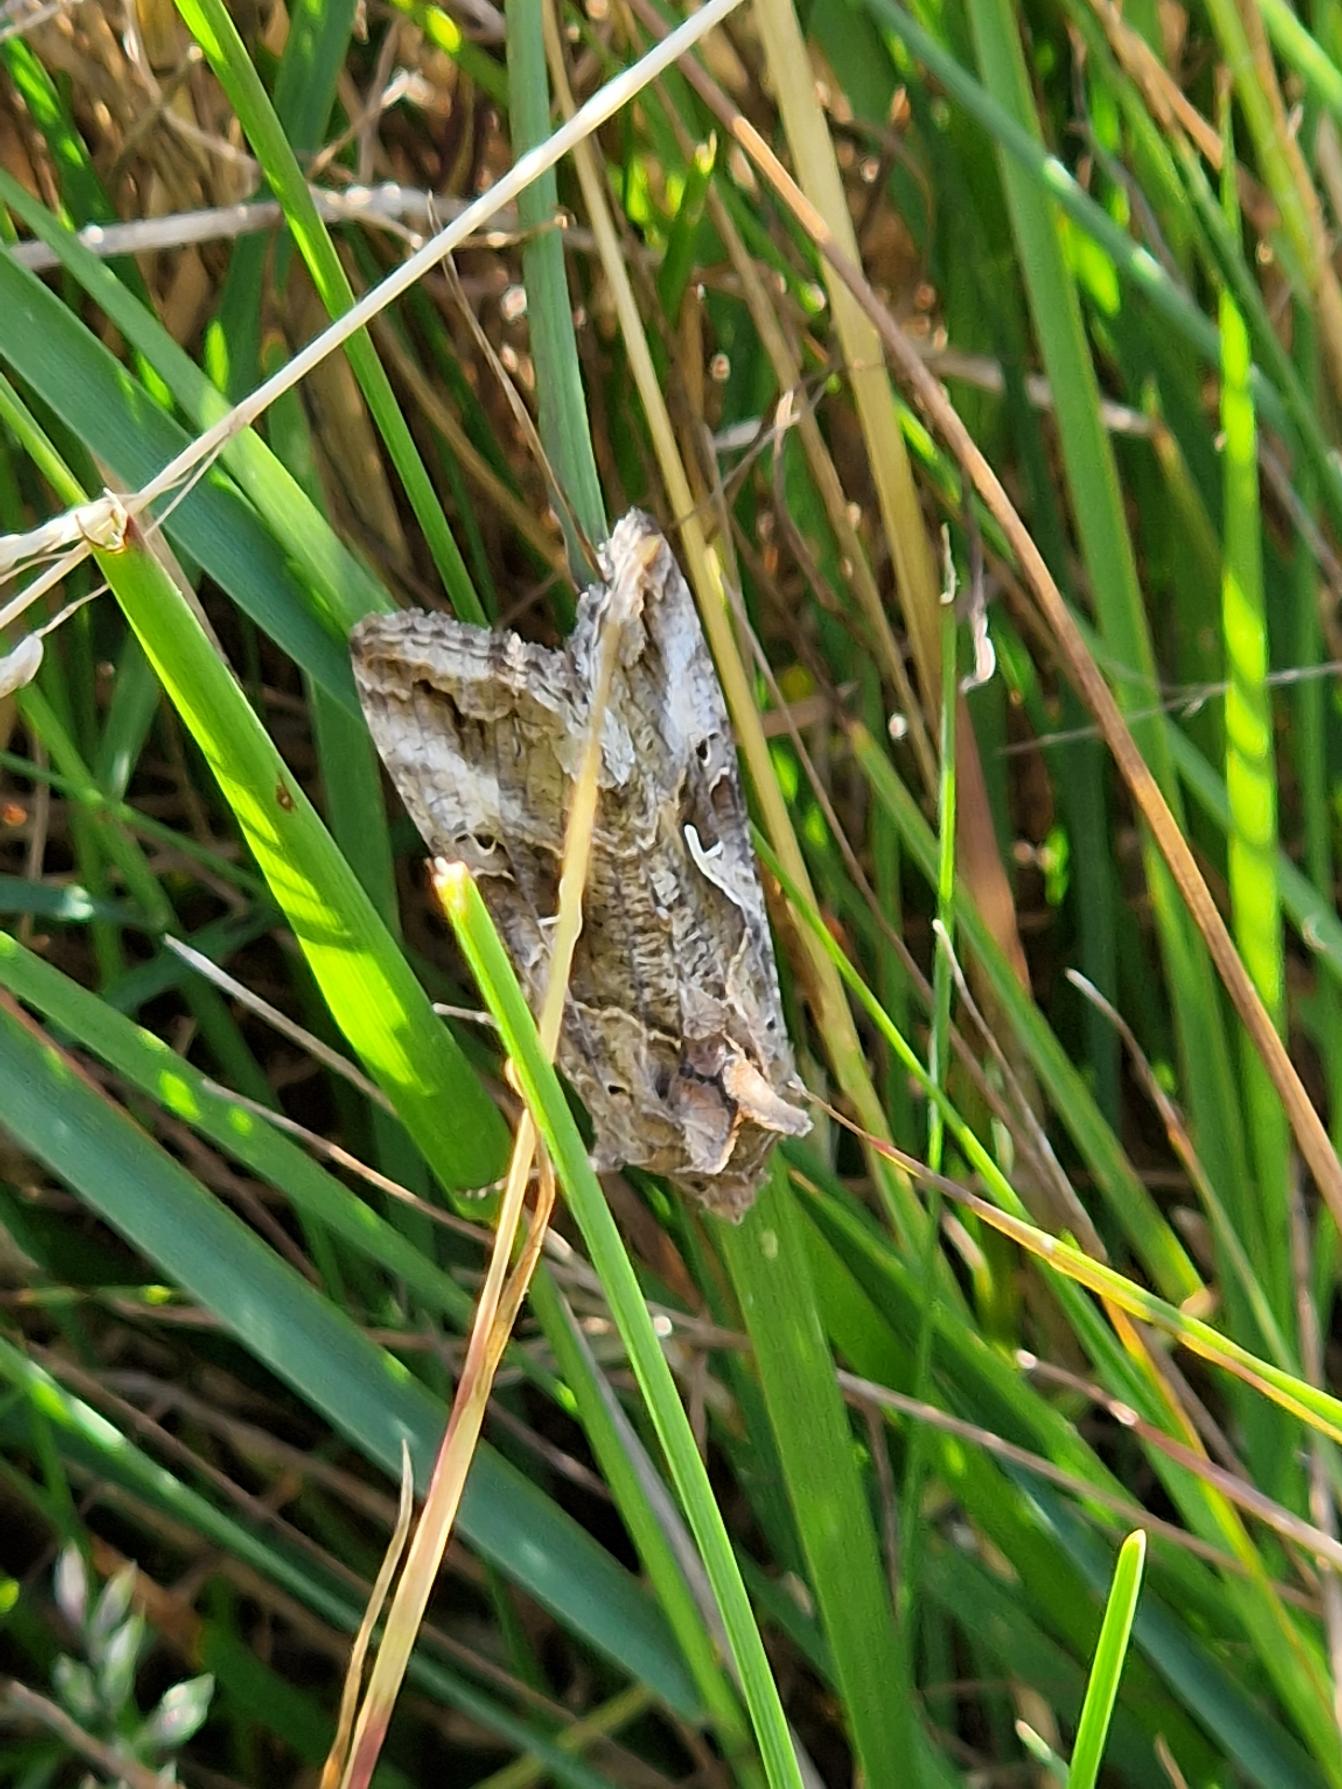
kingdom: Animalia
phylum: Arthropoda
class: Insecta
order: Lepidoptera
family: Noctuidae
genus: Autographa
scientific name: Autographa gamma
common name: Gammaugle
